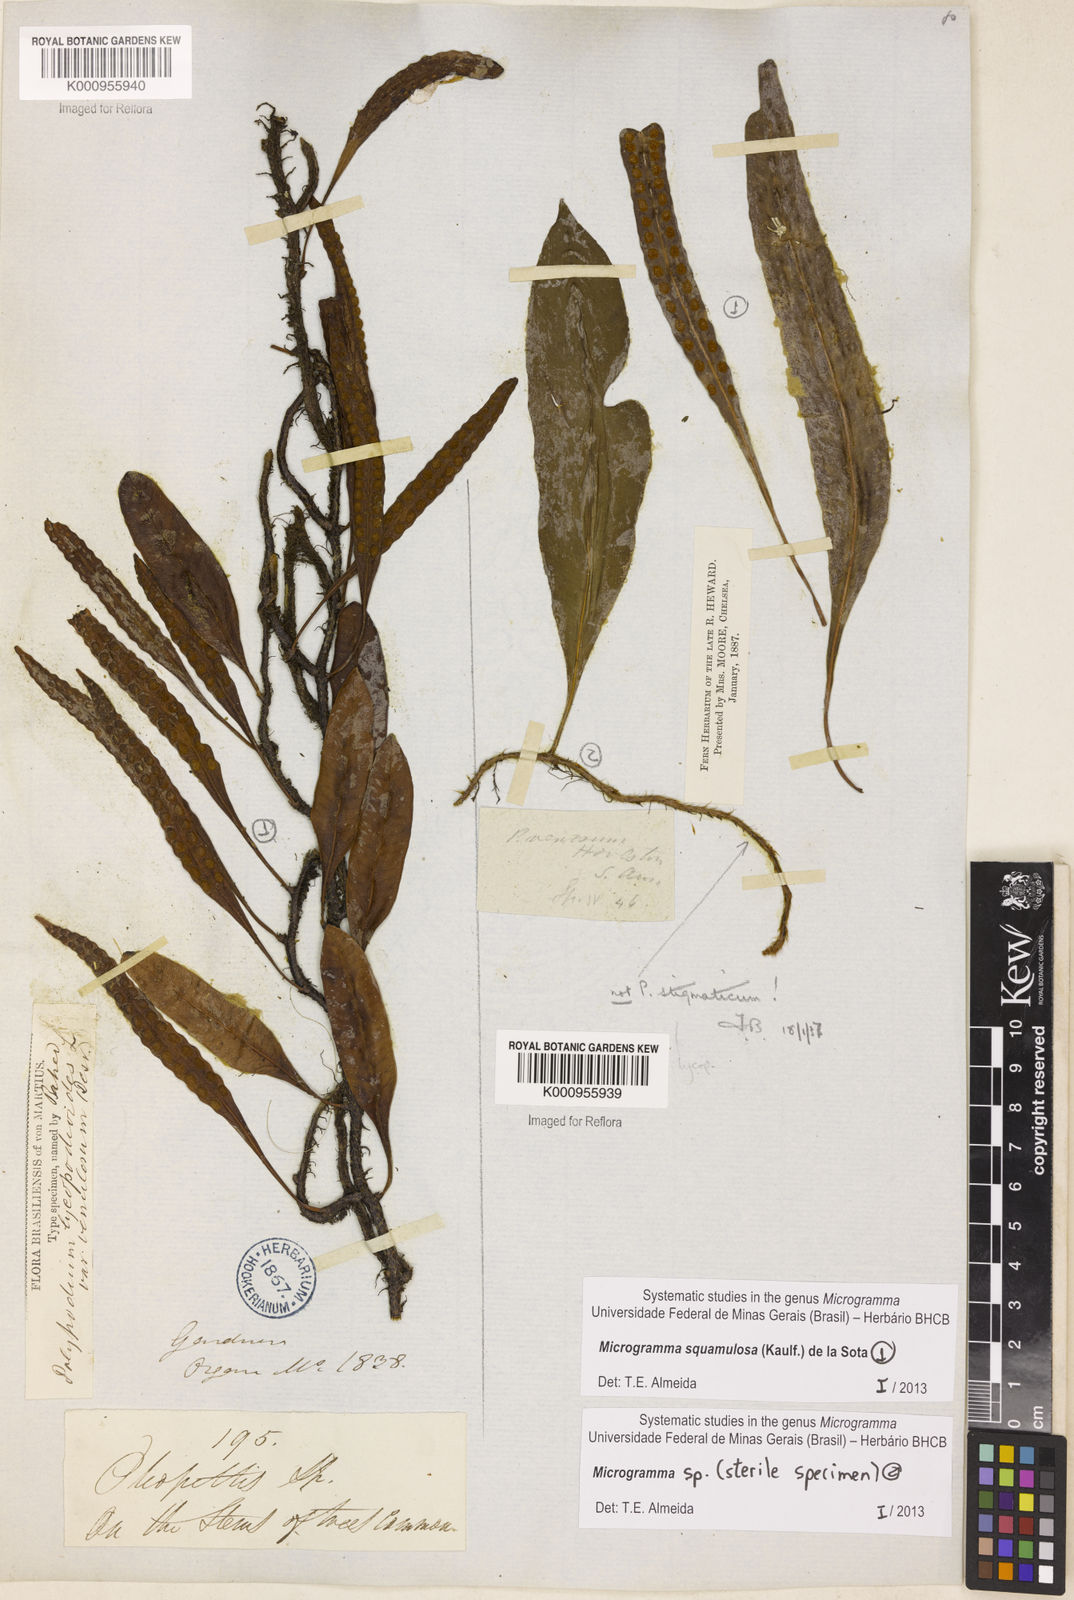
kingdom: Plantae
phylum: Tracheophyta
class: Polypodiopsida
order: Polypodiales
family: Polypodiaceae
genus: Microgramma
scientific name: Microgramma squamulosa
